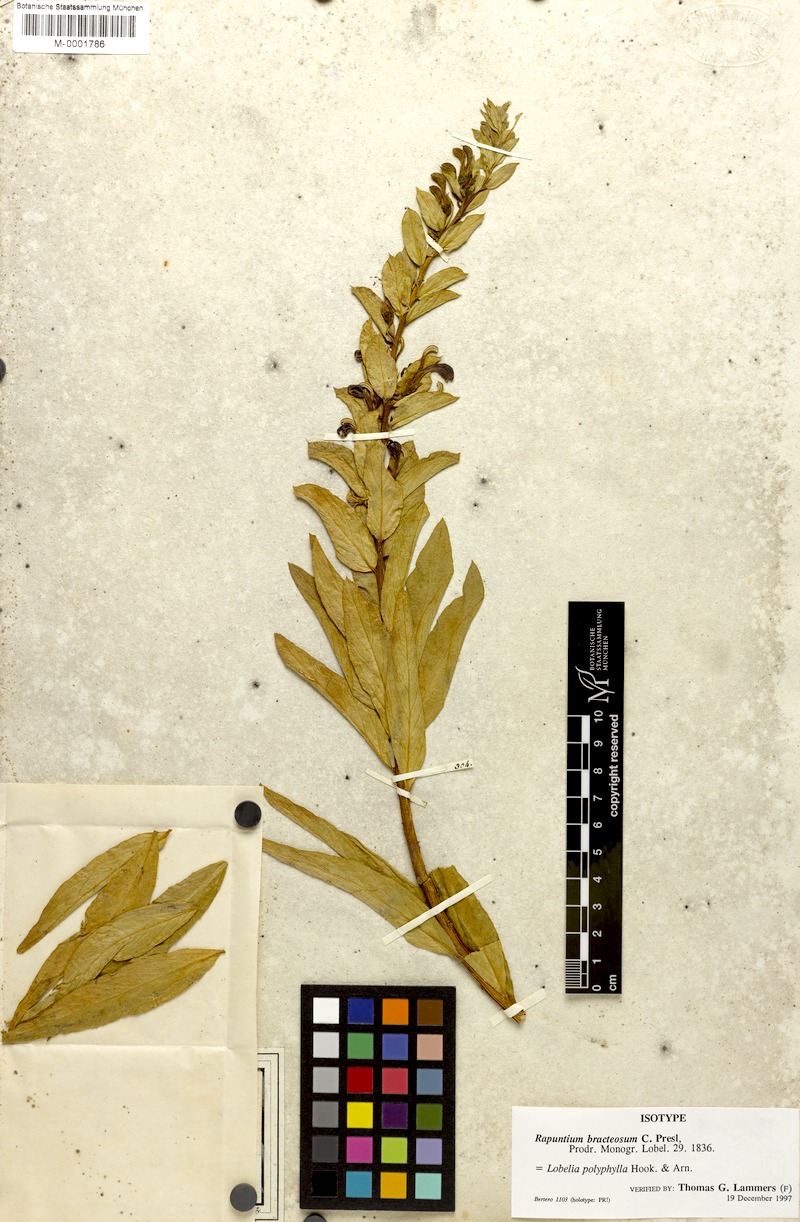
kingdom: Plantae
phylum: Tracheophyta
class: Magnoliopsida
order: Asterales
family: Campanulaceae
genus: Lobelia
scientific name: Lobelia polyphylla
